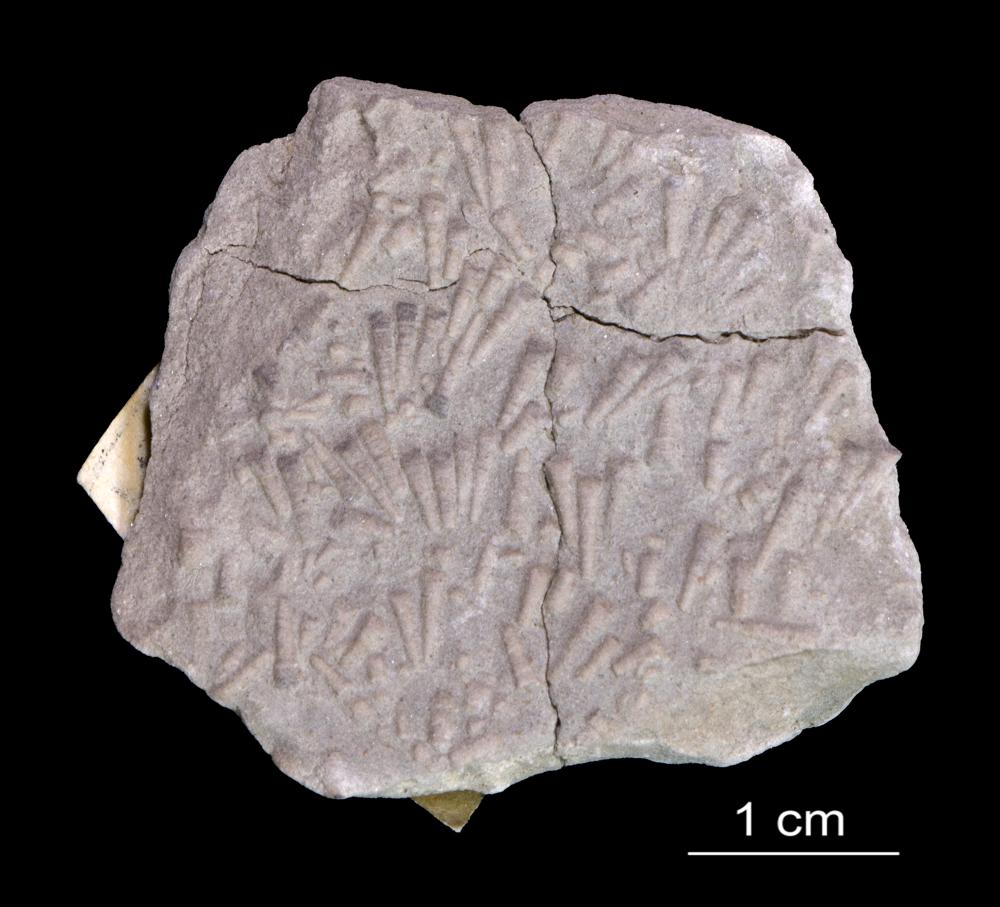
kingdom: Animalia
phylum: Annelida
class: Polychaeta
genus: Volborthella
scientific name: Volborthella tenuis
